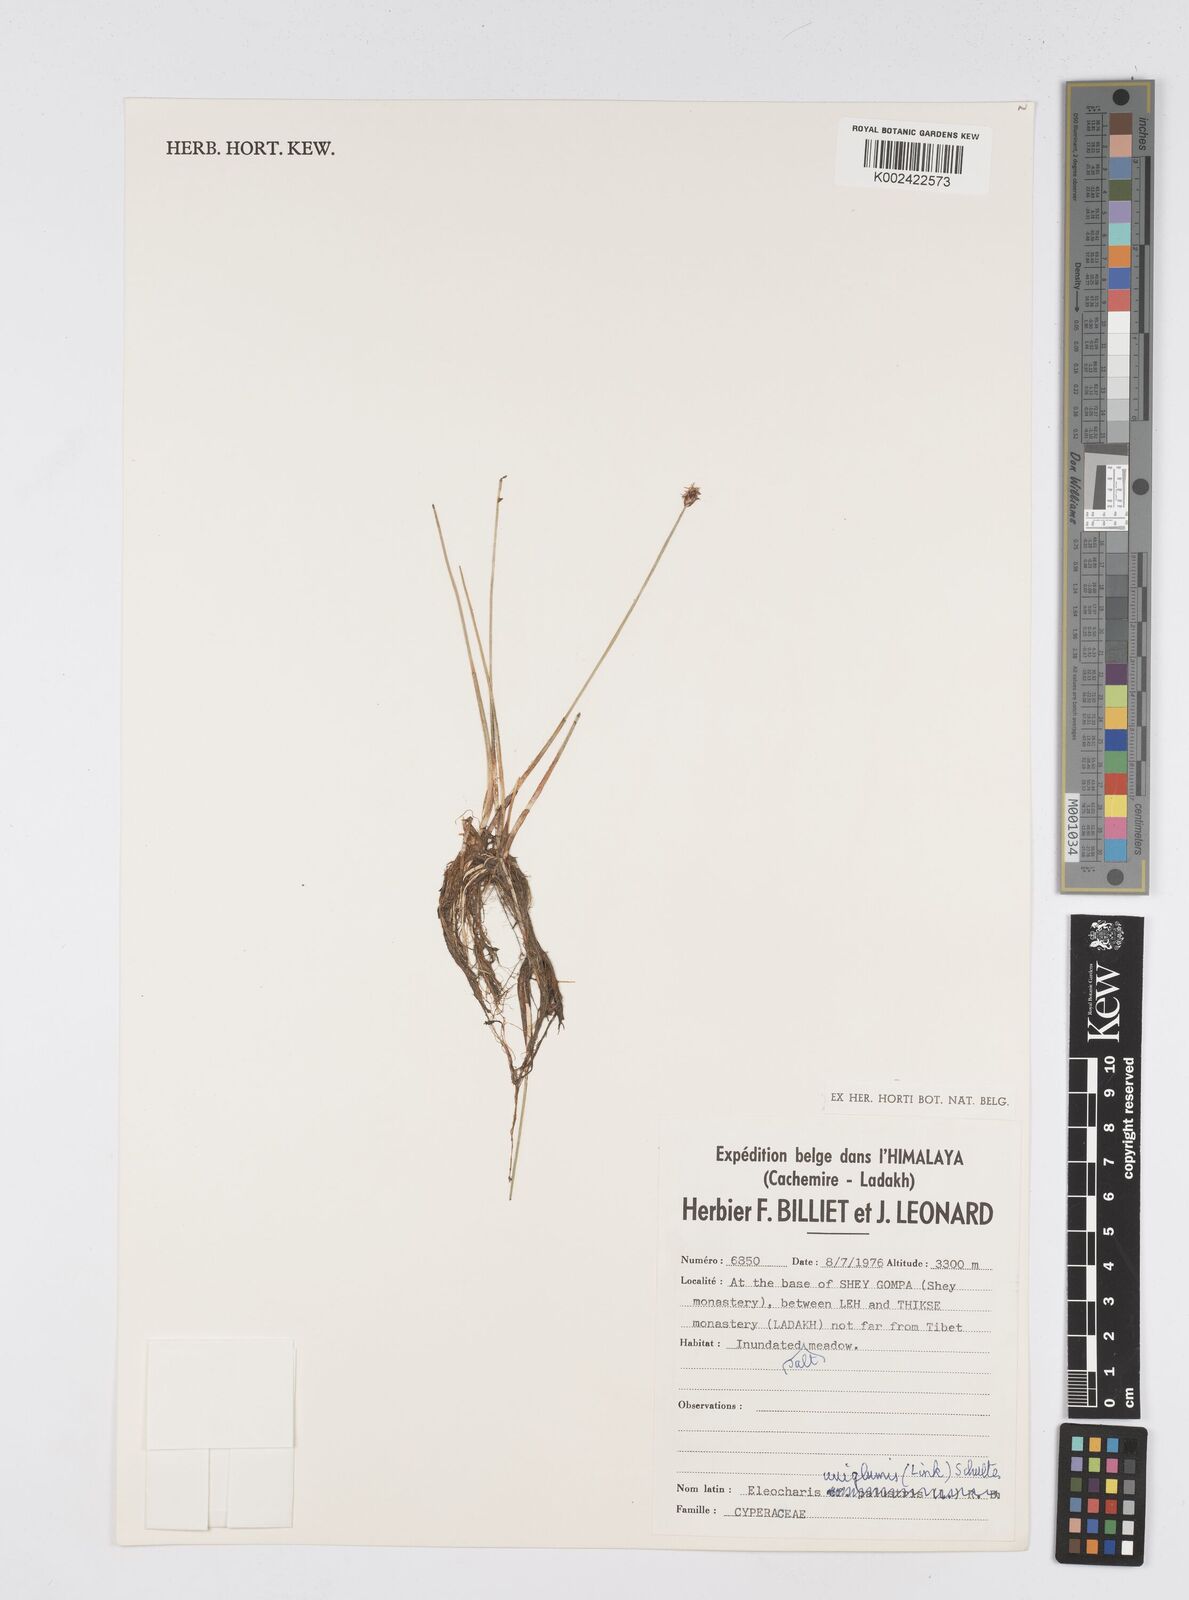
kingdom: Plantae
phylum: Tracheophyta
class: Liliopsida
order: Poales
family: Cyperaceae
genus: Eleocharis
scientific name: Eleocharis uniglumis
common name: Slender spike-rush
